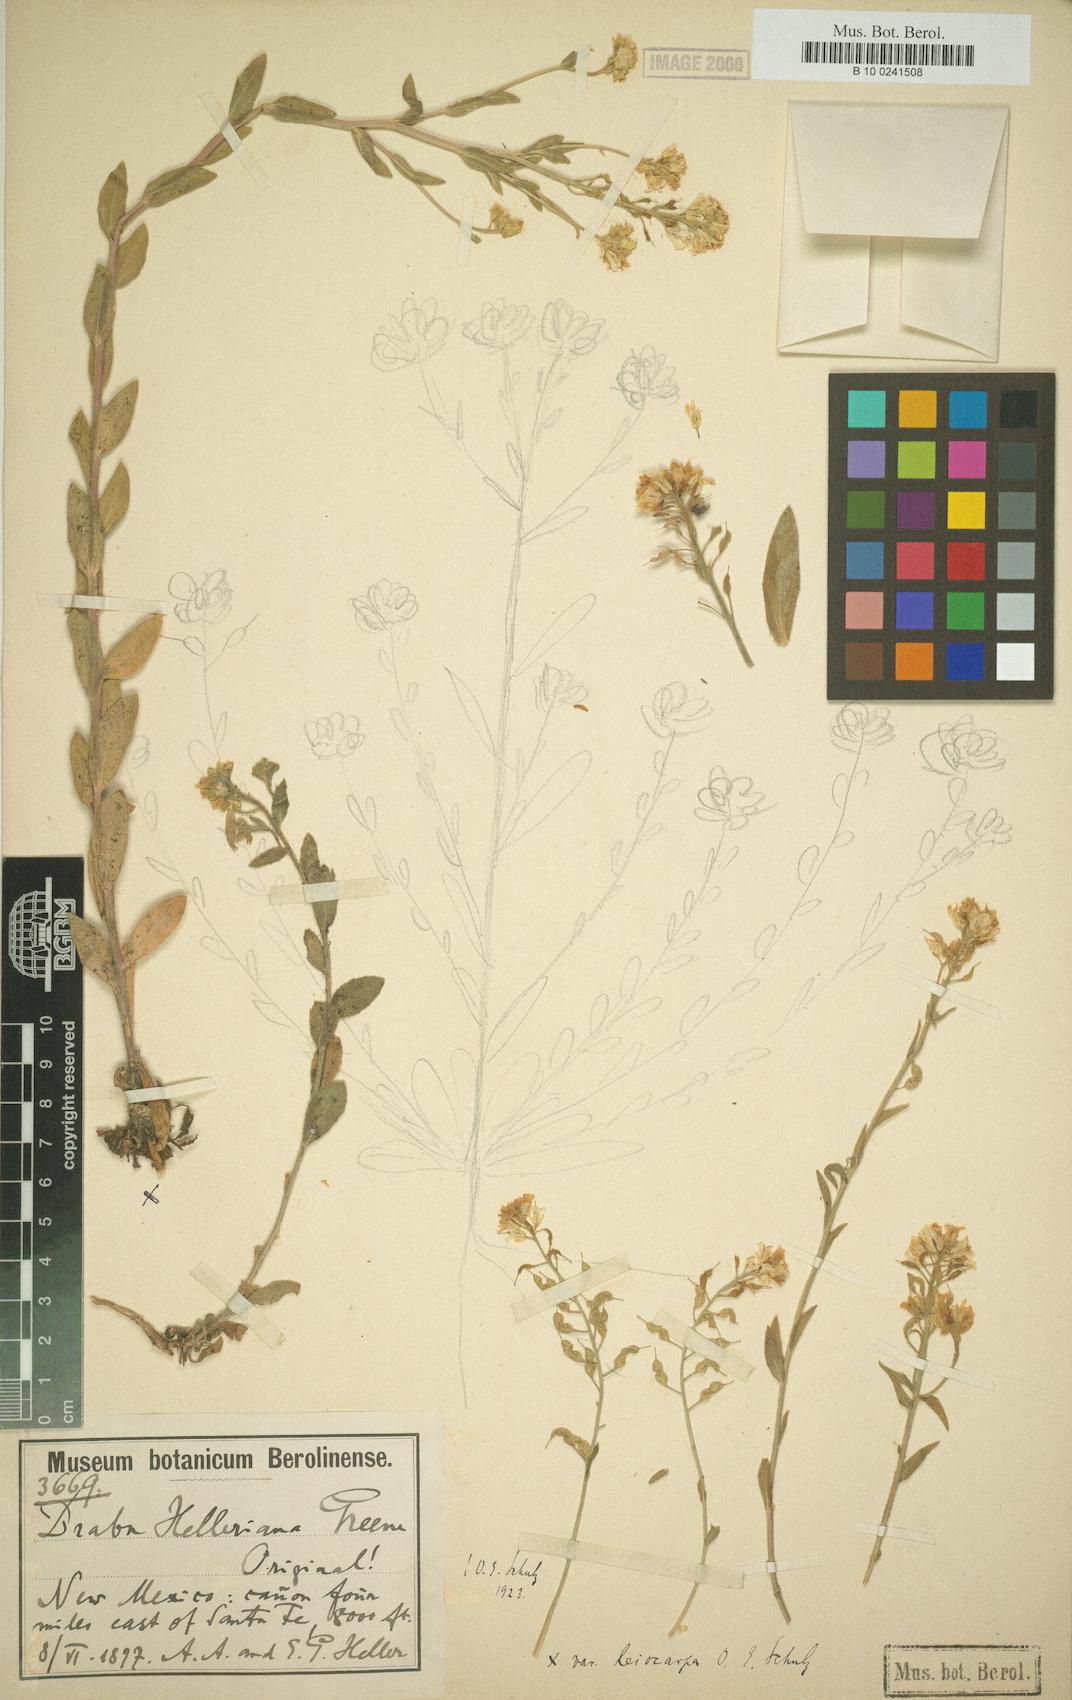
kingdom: Plantae
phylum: Tracheophyta
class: Magnoliopsida
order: Brassicales
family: Brassicaceae
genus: Draba
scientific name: Draba helleriana
